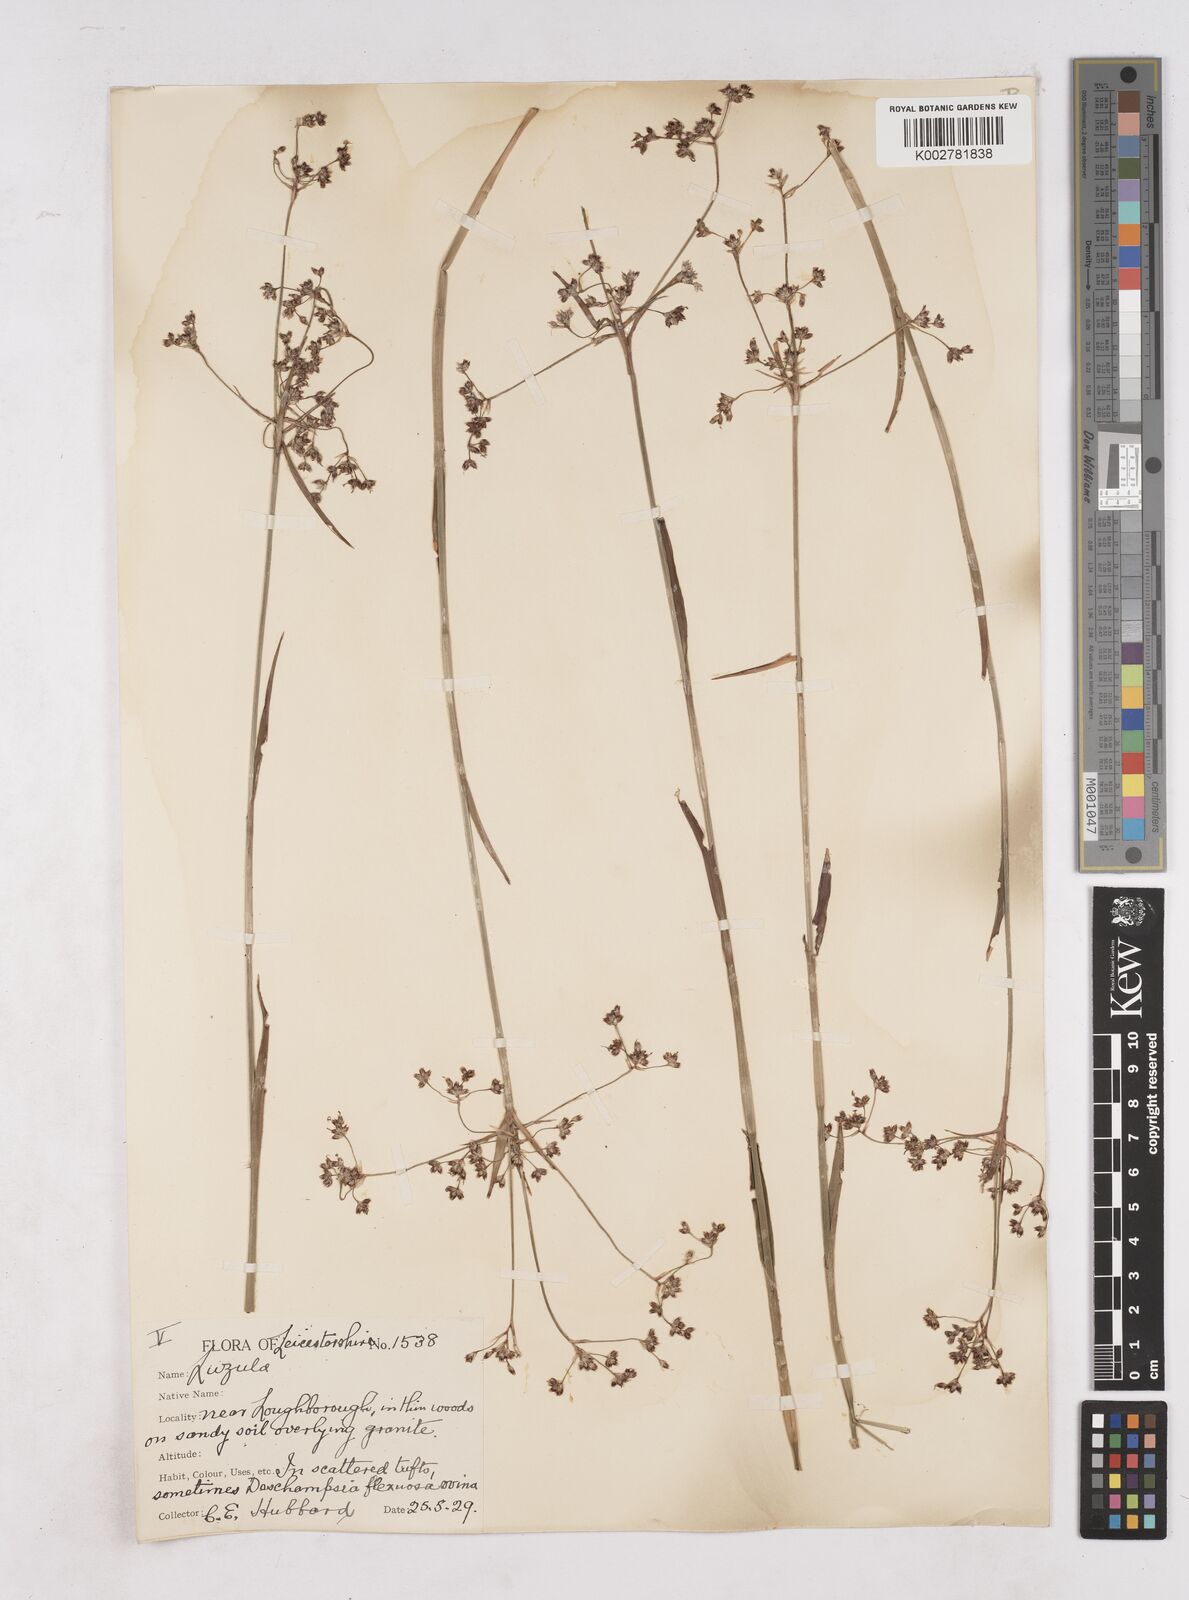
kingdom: Plantae
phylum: Tracheophyta
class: Liliopsida
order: Poales
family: Juncaceae
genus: Luzula
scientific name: Luzula sylvatica
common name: Great wood-rush
